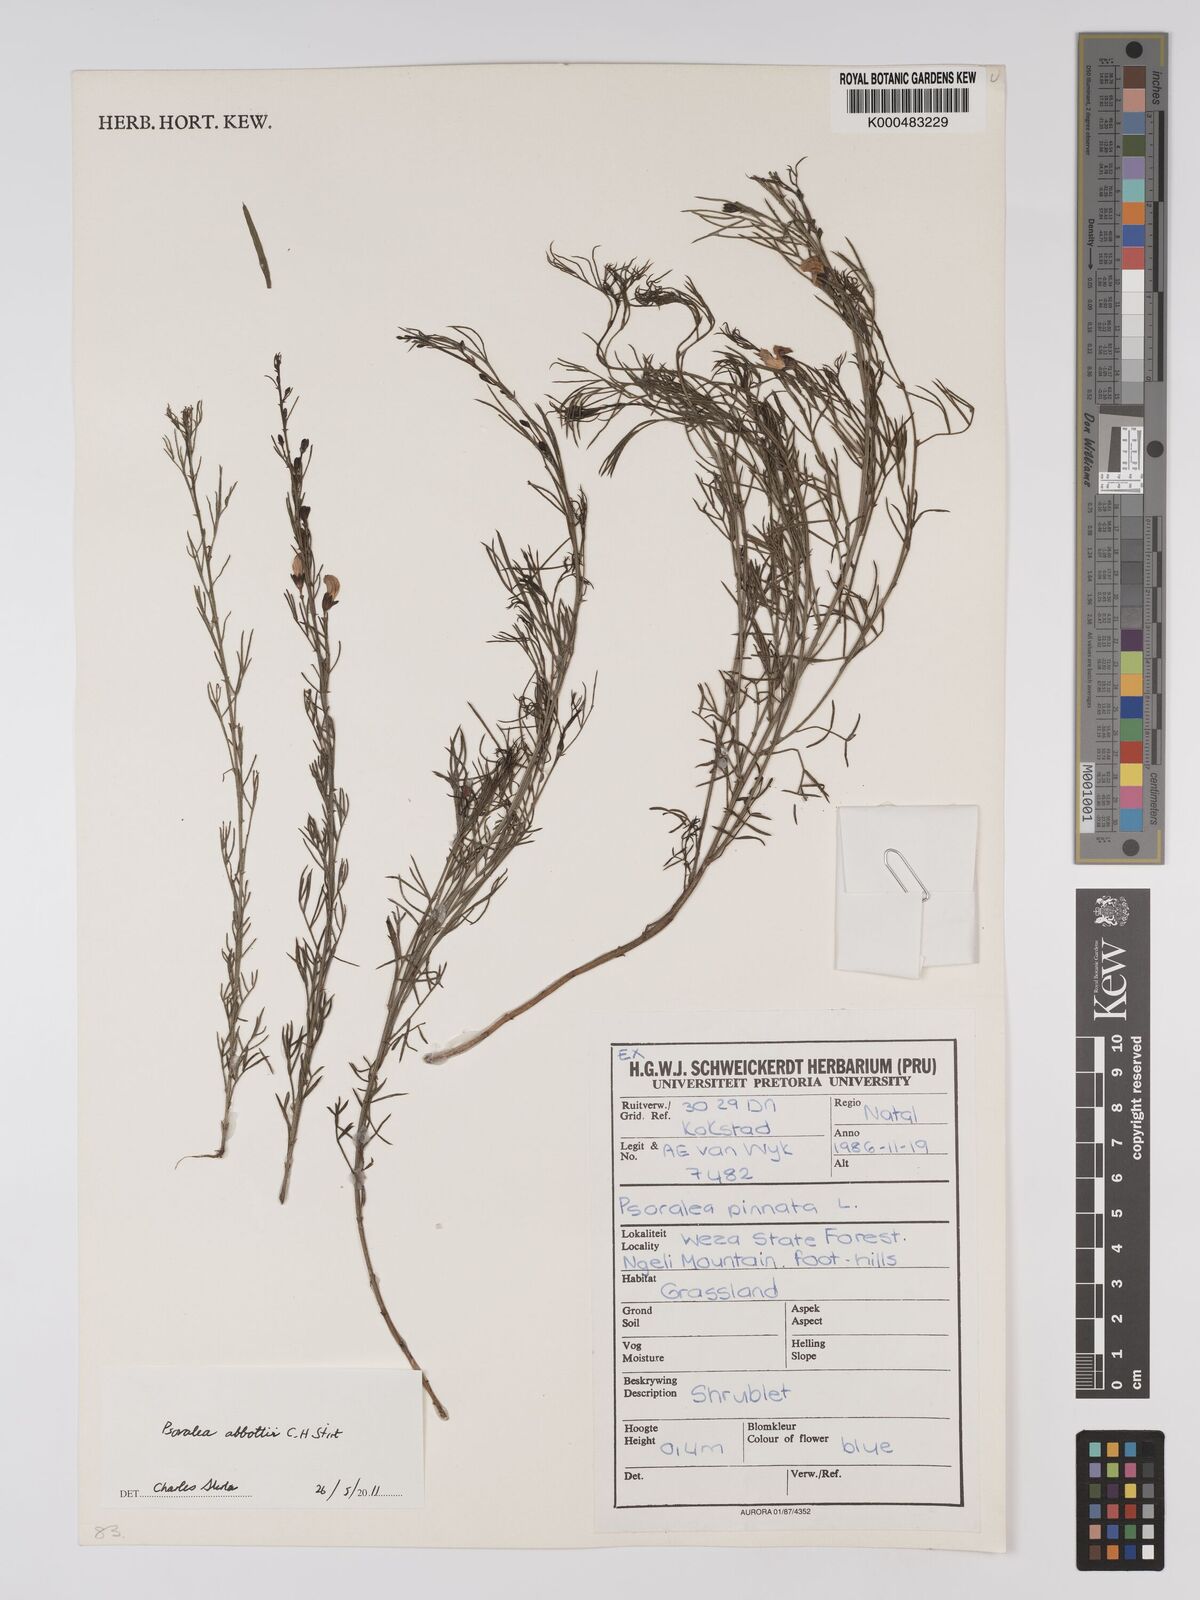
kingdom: Plantae
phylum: Tracheophyta
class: Magnoliopsida
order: Fabales
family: Fabaceae
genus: Psoralea
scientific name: Psoralea abbottii
